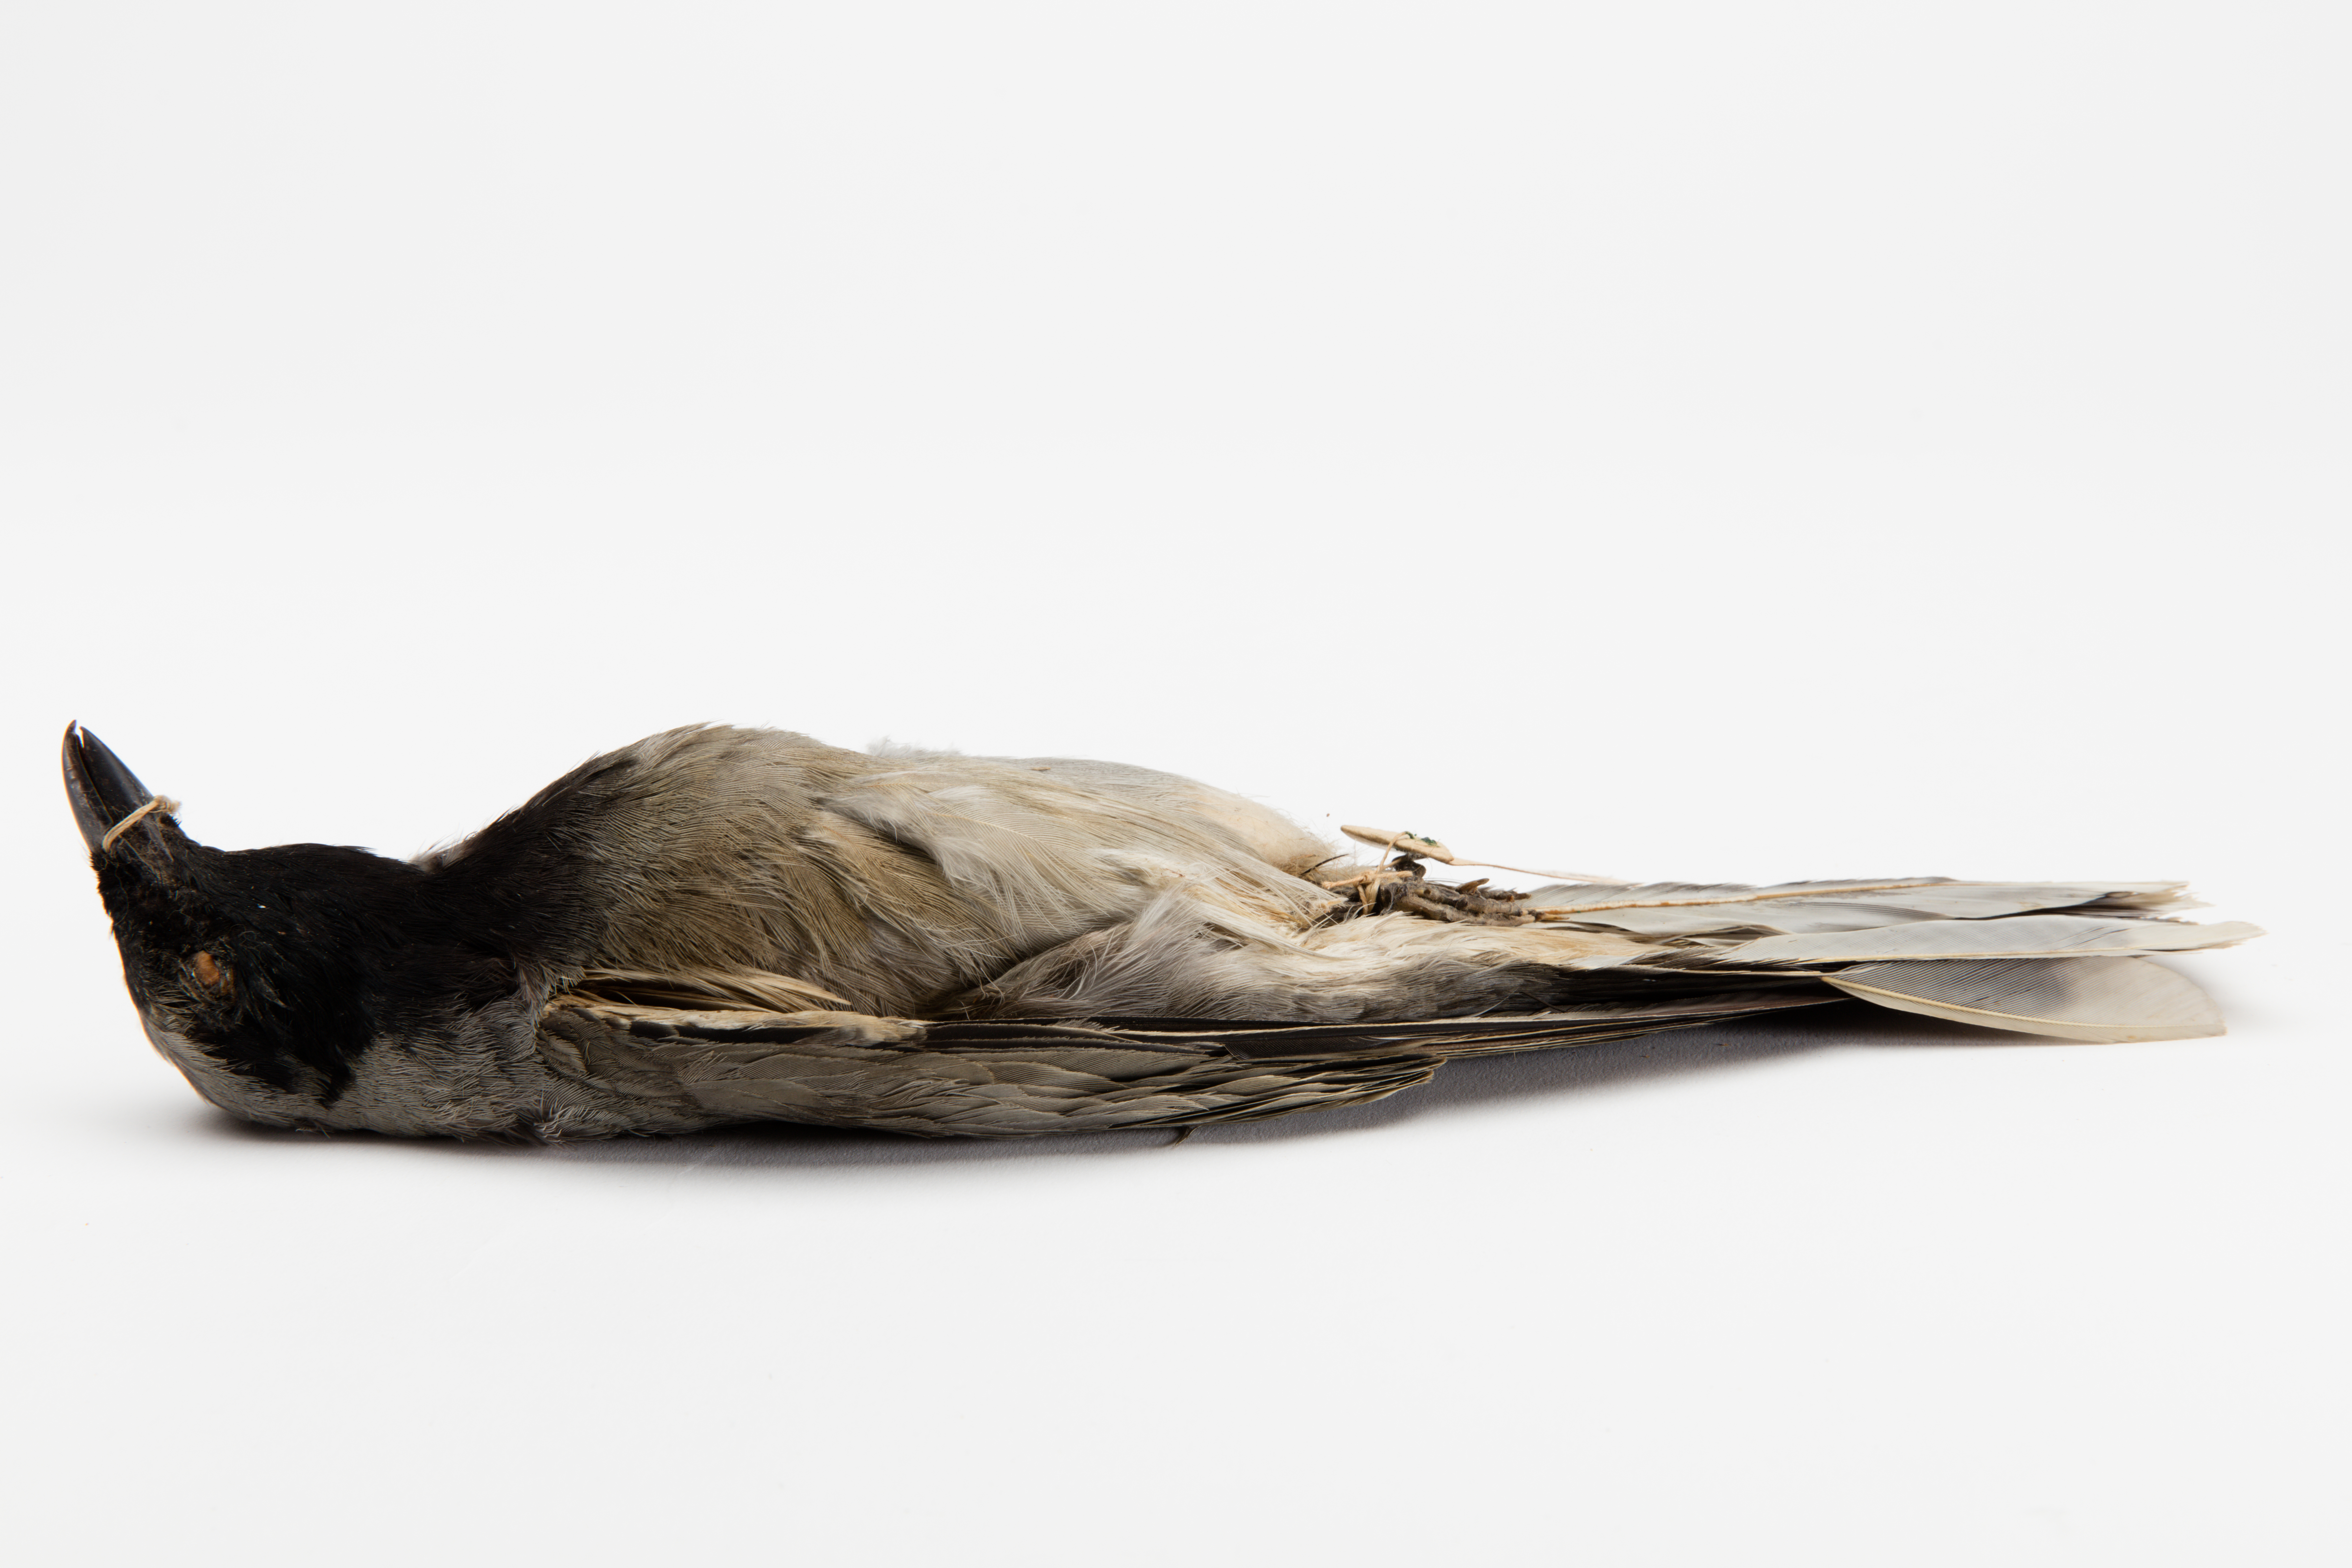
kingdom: Animalia
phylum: Chordata
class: Aves
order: Passeriformes
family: Campephagidae
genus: Coracina
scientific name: Coracina novaehollandiae
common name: Black-faced cuckooshrike
